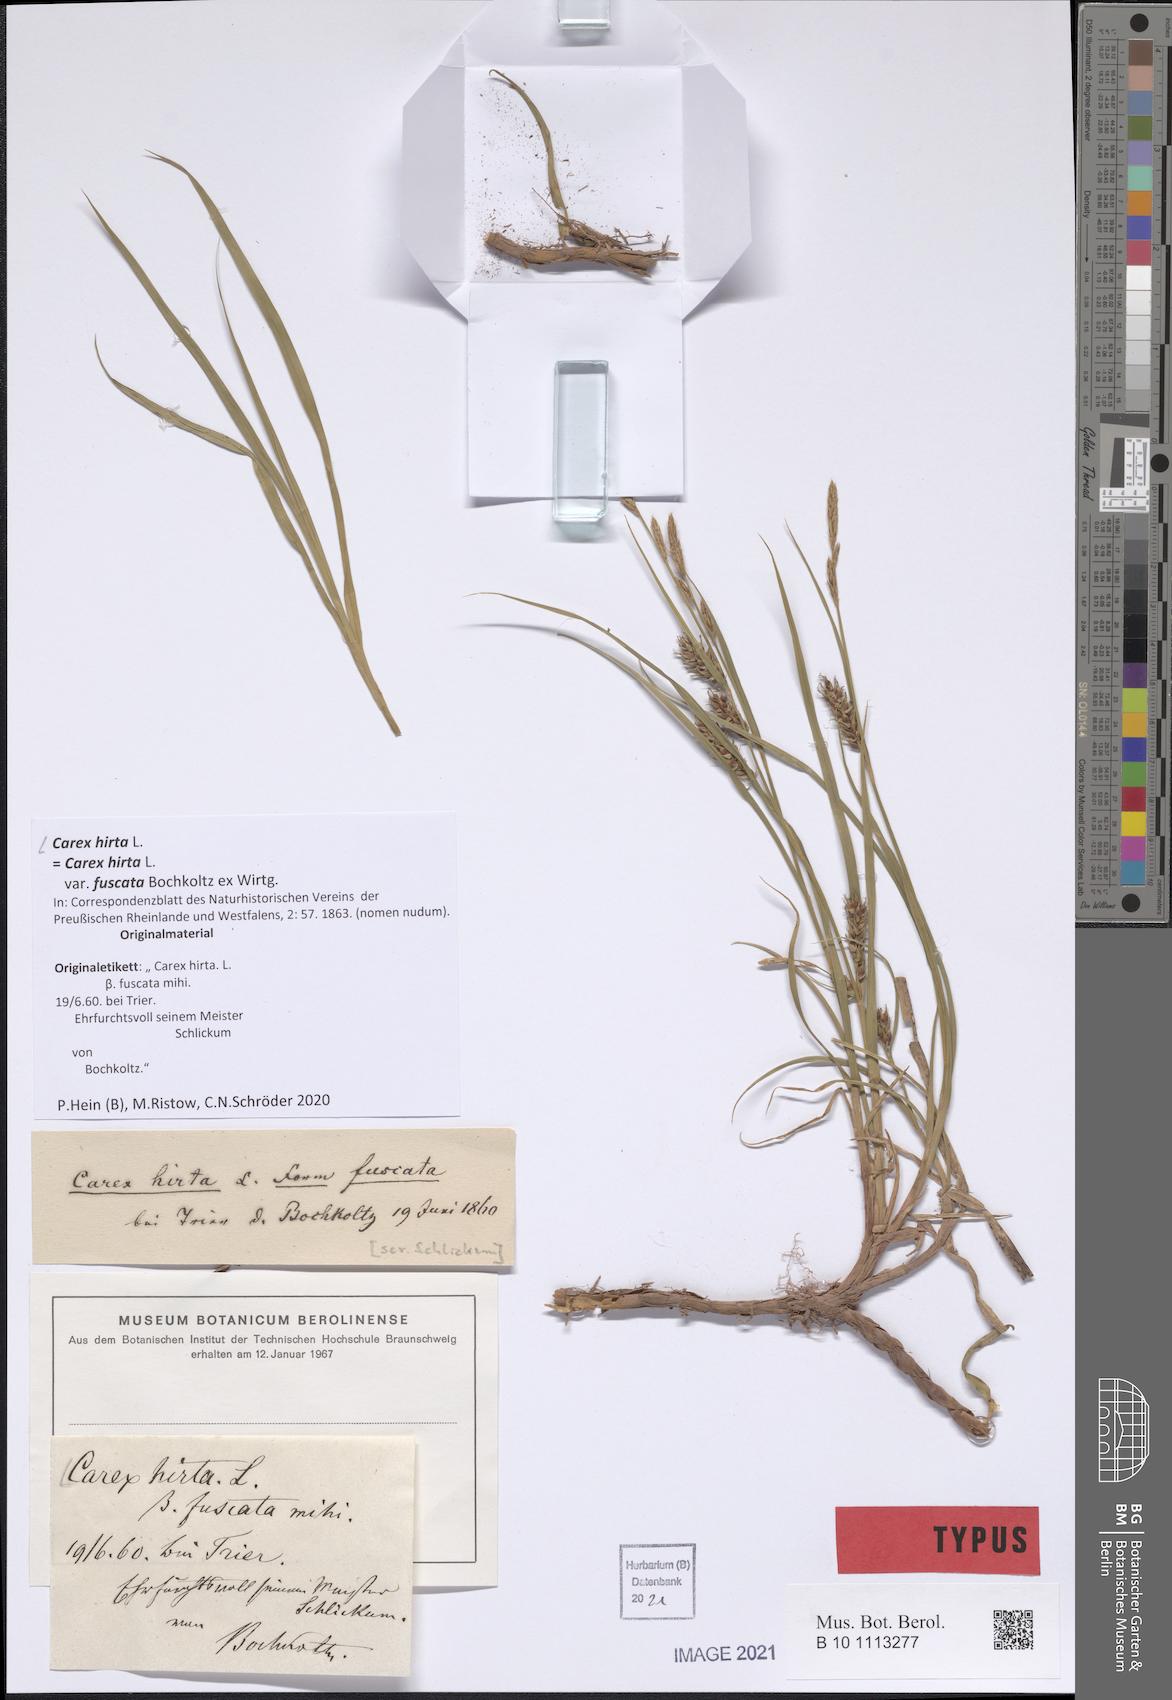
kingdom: Plantae
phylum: Tracheophyta
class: Liliopsida
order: Poales
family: Cyperaceae
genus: Carex
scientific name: Carex hirta
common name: Hairy sedge
